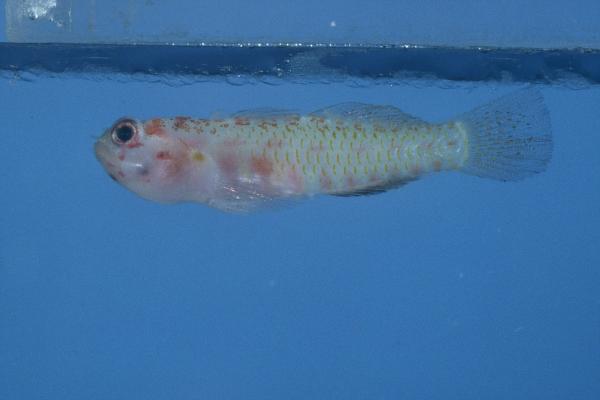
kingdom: Animalia
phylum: Chordata
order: Perciformes
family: Gobiidae
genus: Eviota
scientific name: Eviota albolineata
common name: Spotted fringefin goby
